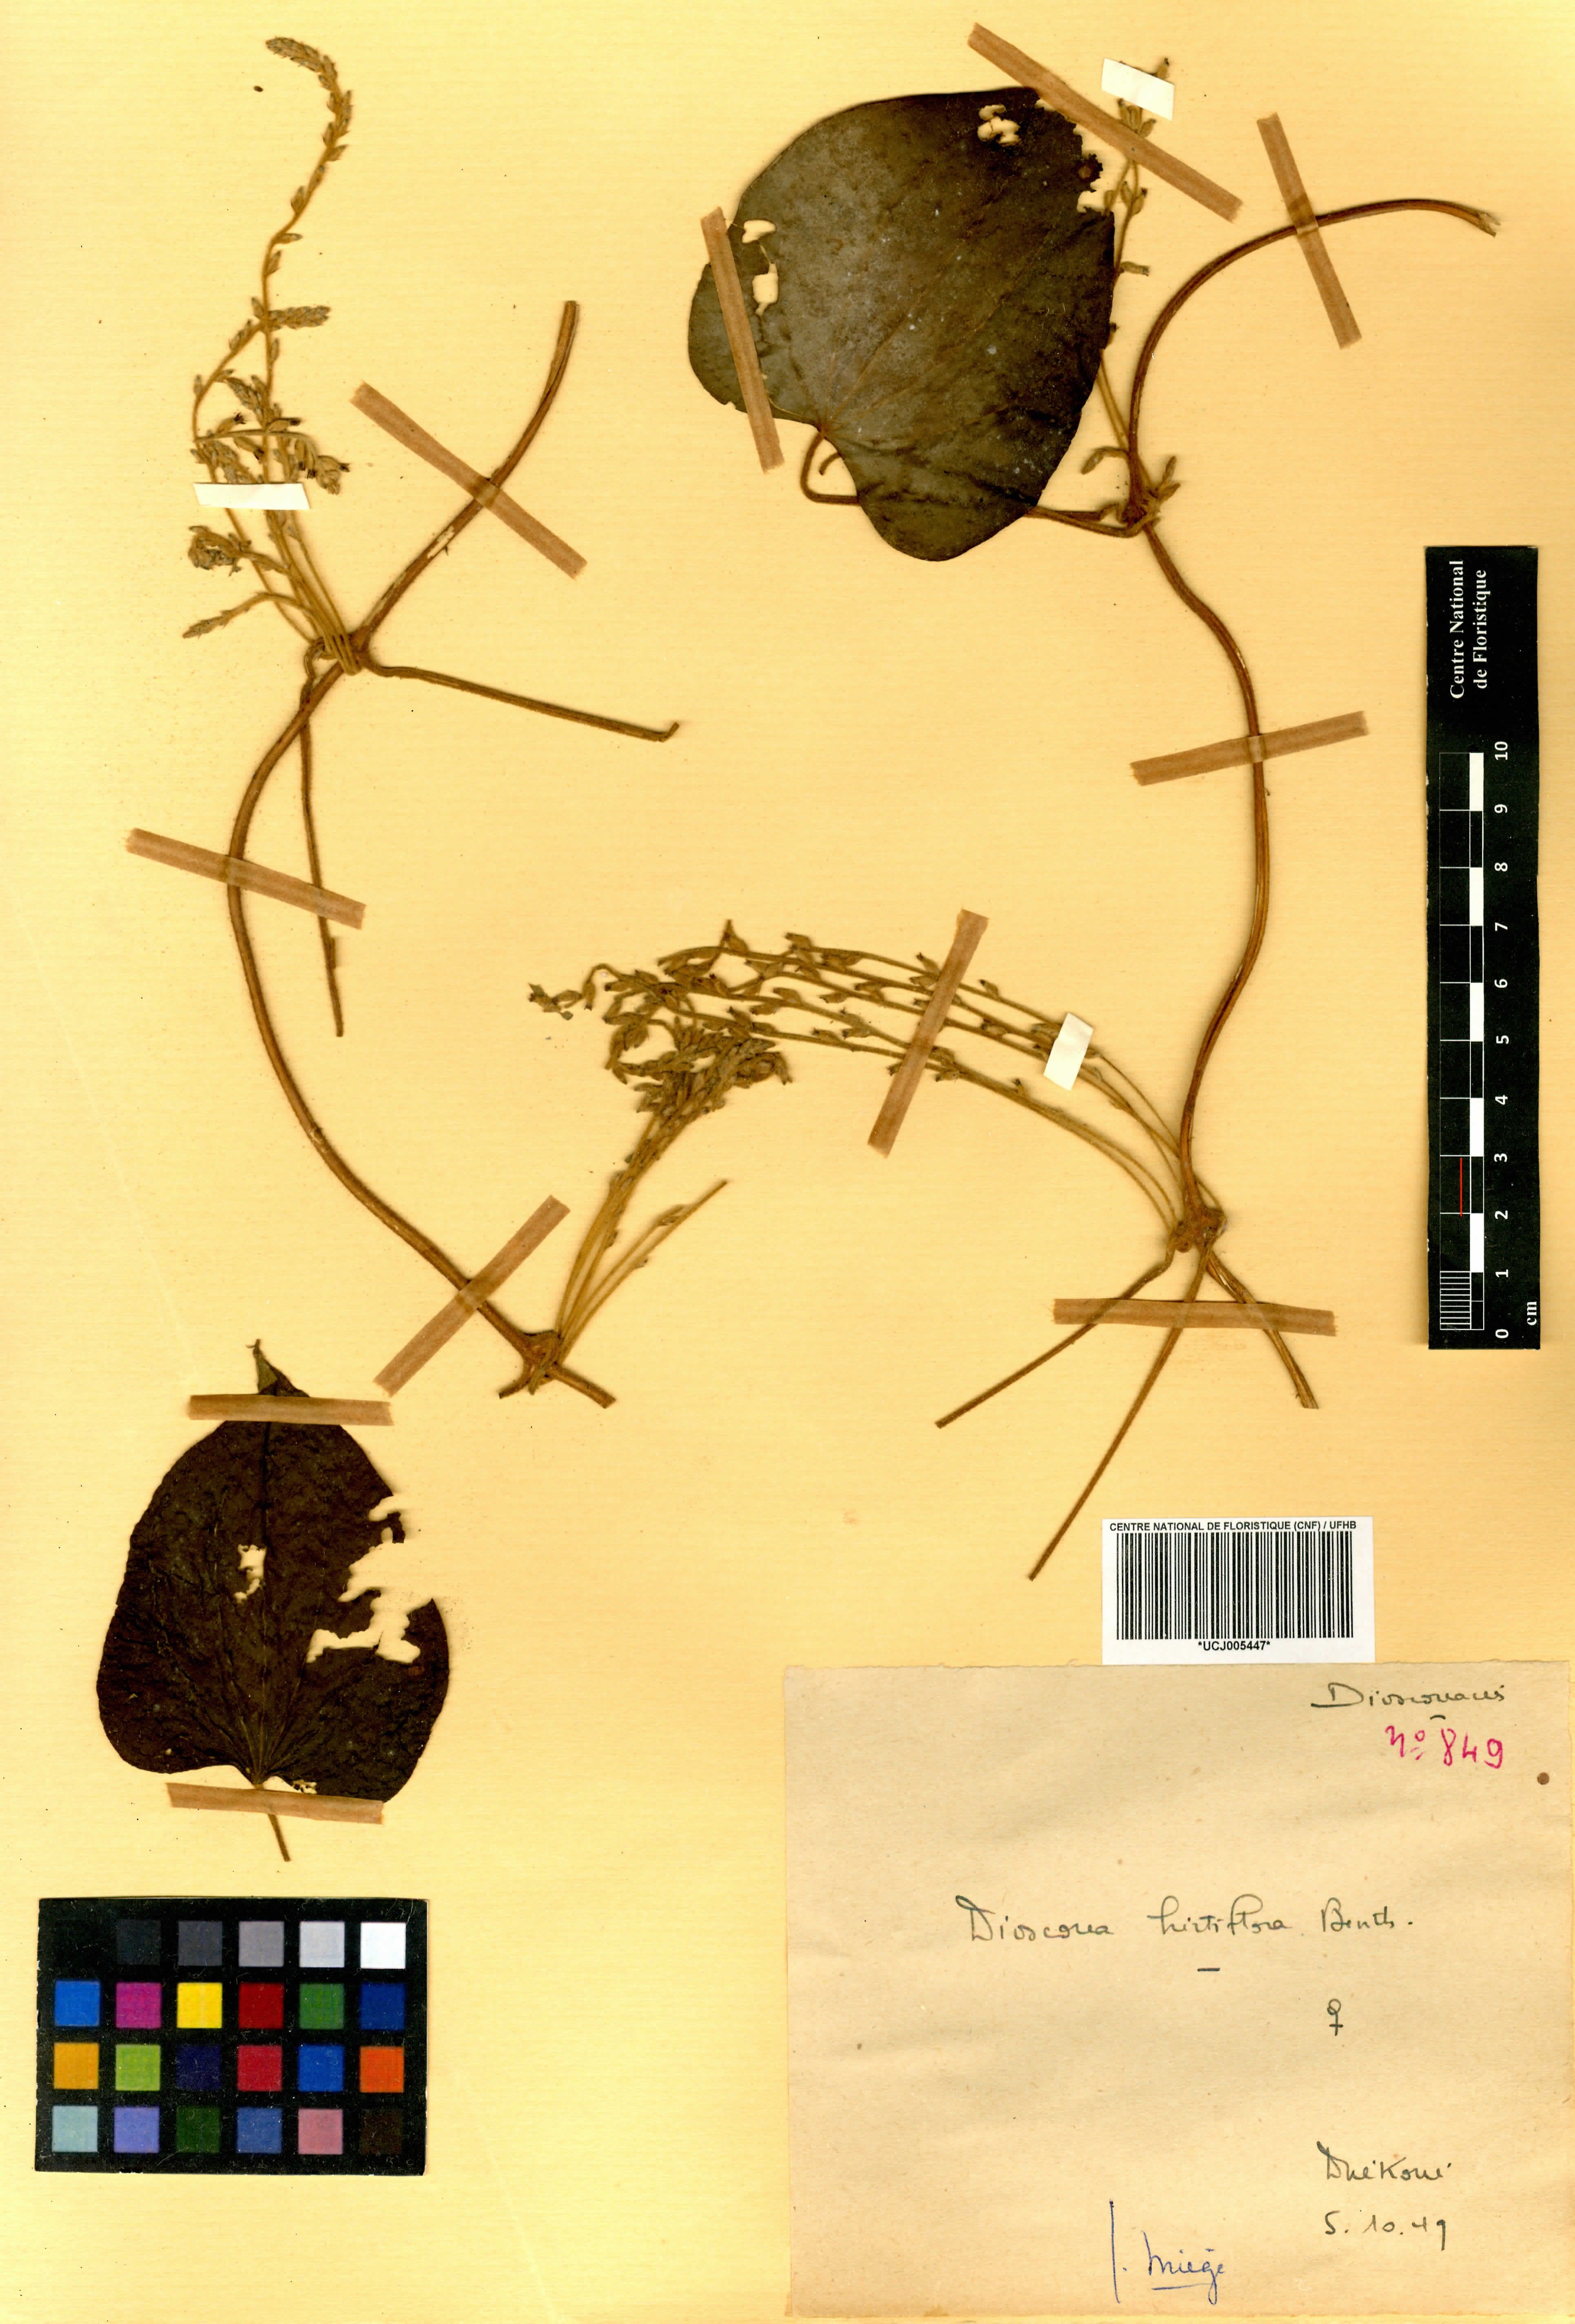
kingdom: Plantae
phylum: Tracheophyta
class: Liliopsida
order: Dioscoreales
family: Dioscoreaceae
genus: Dioscorea
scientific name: Dioscorea hirtiflora
